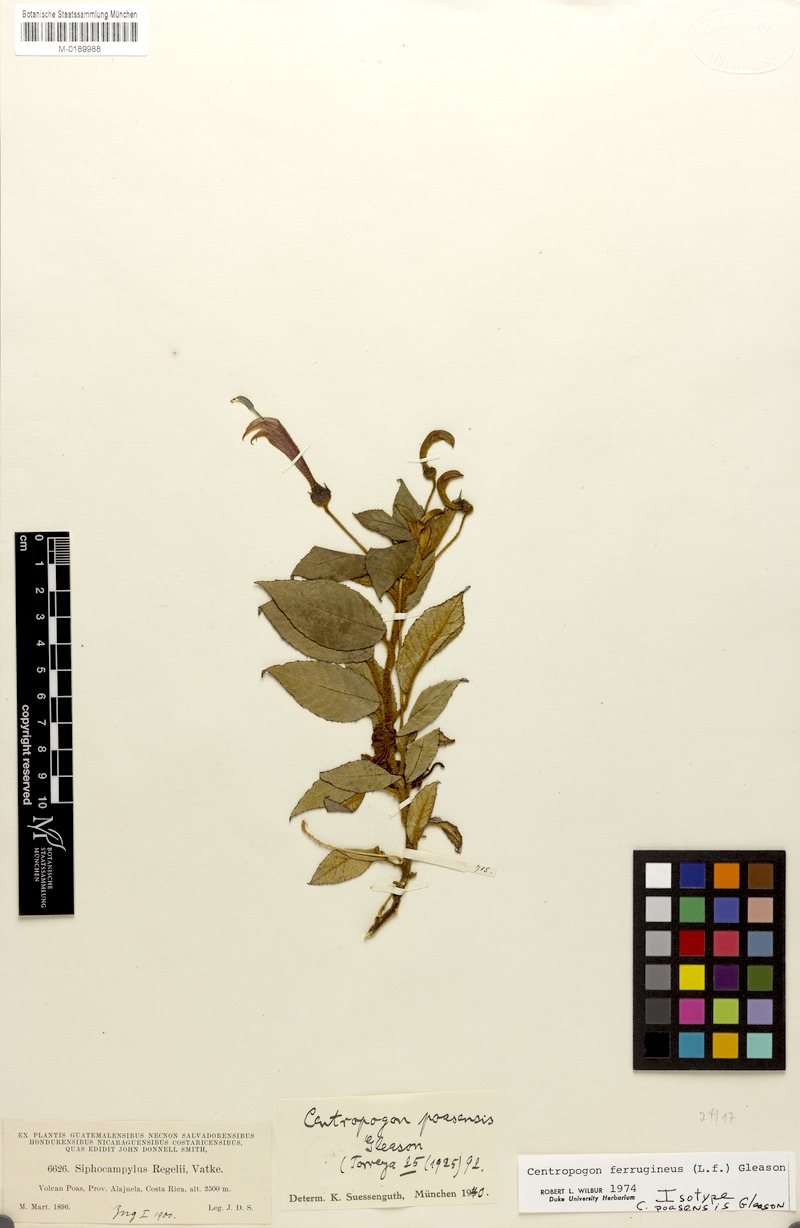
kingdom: Plantae
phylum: Tracheophyta
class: Magnoliopsida
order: Asterales
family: Campanulaceae
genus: Centropogon
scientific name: Centropogon ferrugineus
